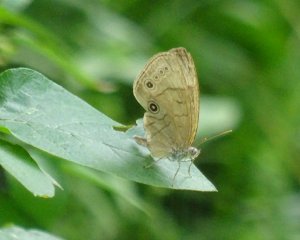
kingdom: Animalia
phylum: Arthropoda
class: Insecta
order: Lepidoptera
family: Nymphalidae
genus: Lethe
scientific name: Lethe eurydice
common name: Eyed Brown
